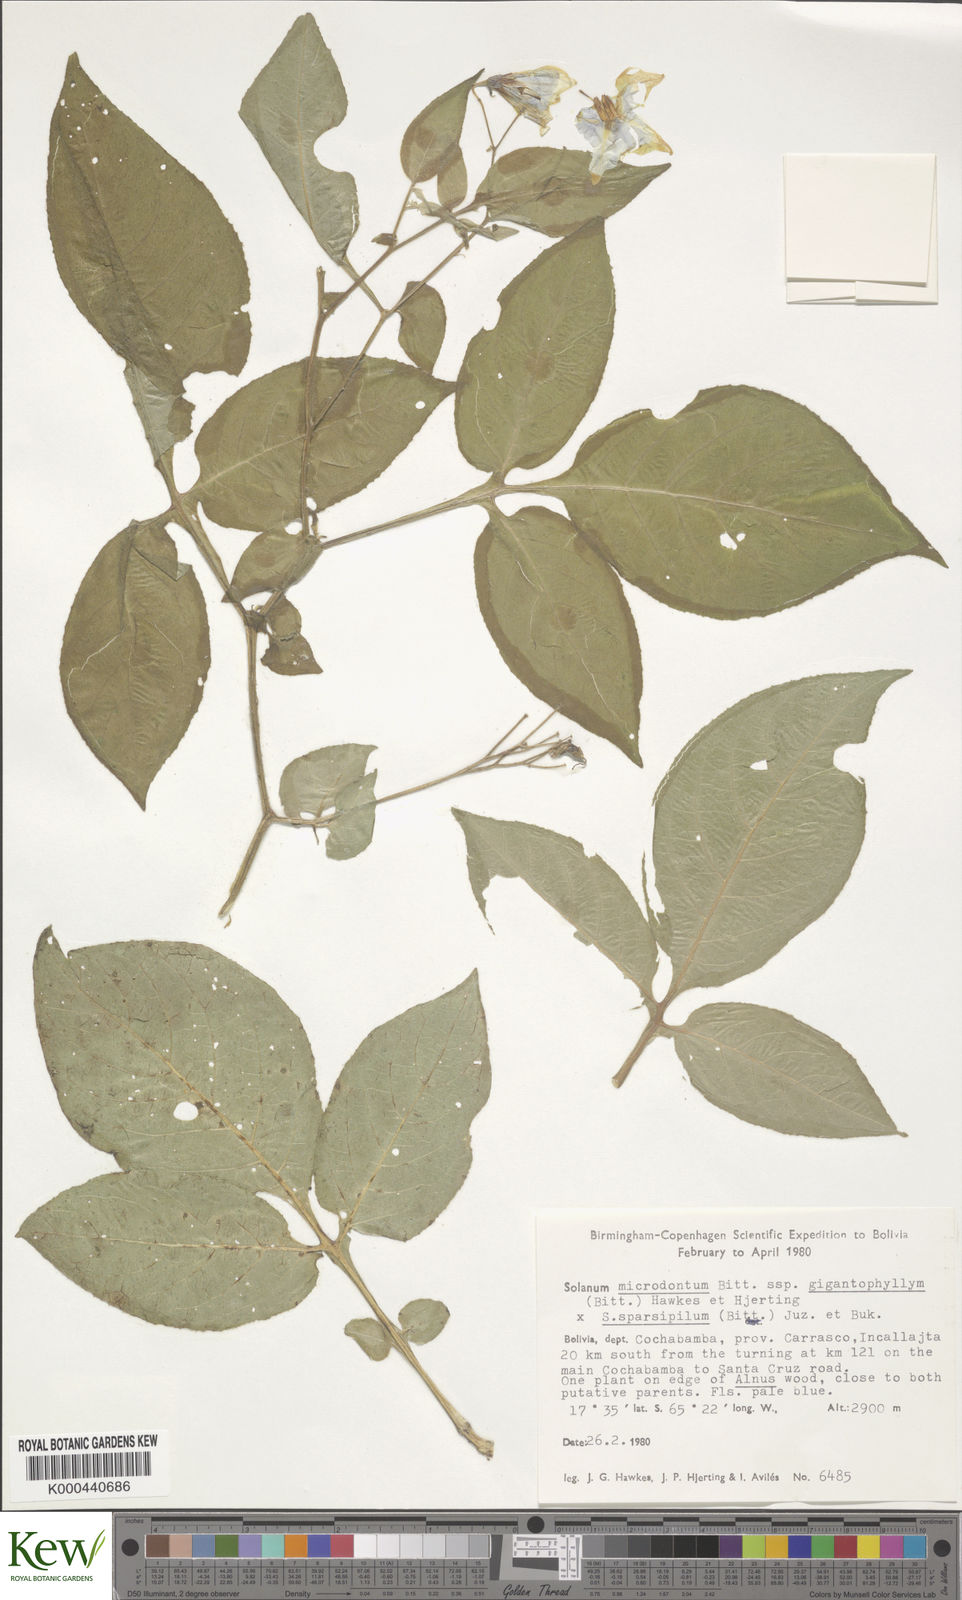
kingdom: Plantae
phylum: Tracheophyta
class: Magnoliopsida
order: Solanales
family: Solanaceae
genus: Solanum
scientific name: Solanum microdontum
